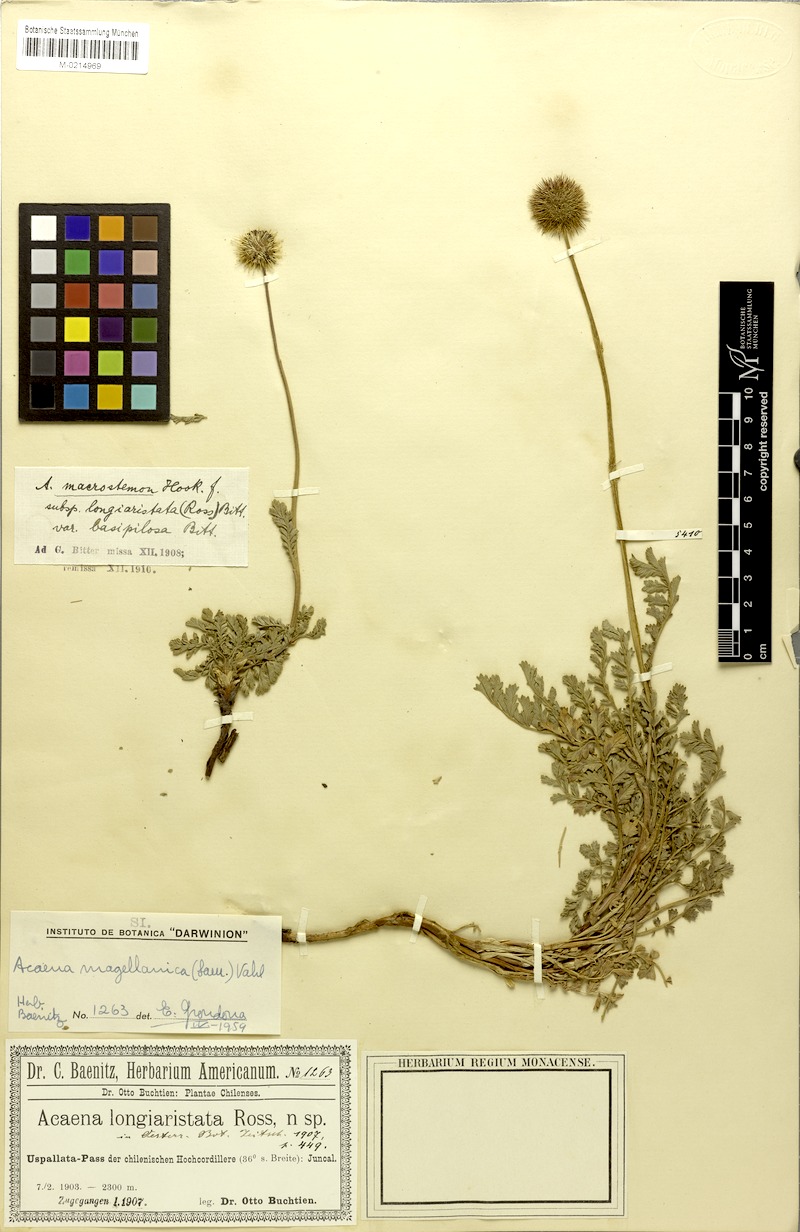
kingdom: Plantae
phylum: Tracheophyta
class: Magnoliopsida
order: Rosales
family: Rosaceae
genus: Acaena
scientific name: Acaena magellanica
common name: New zealand burr
